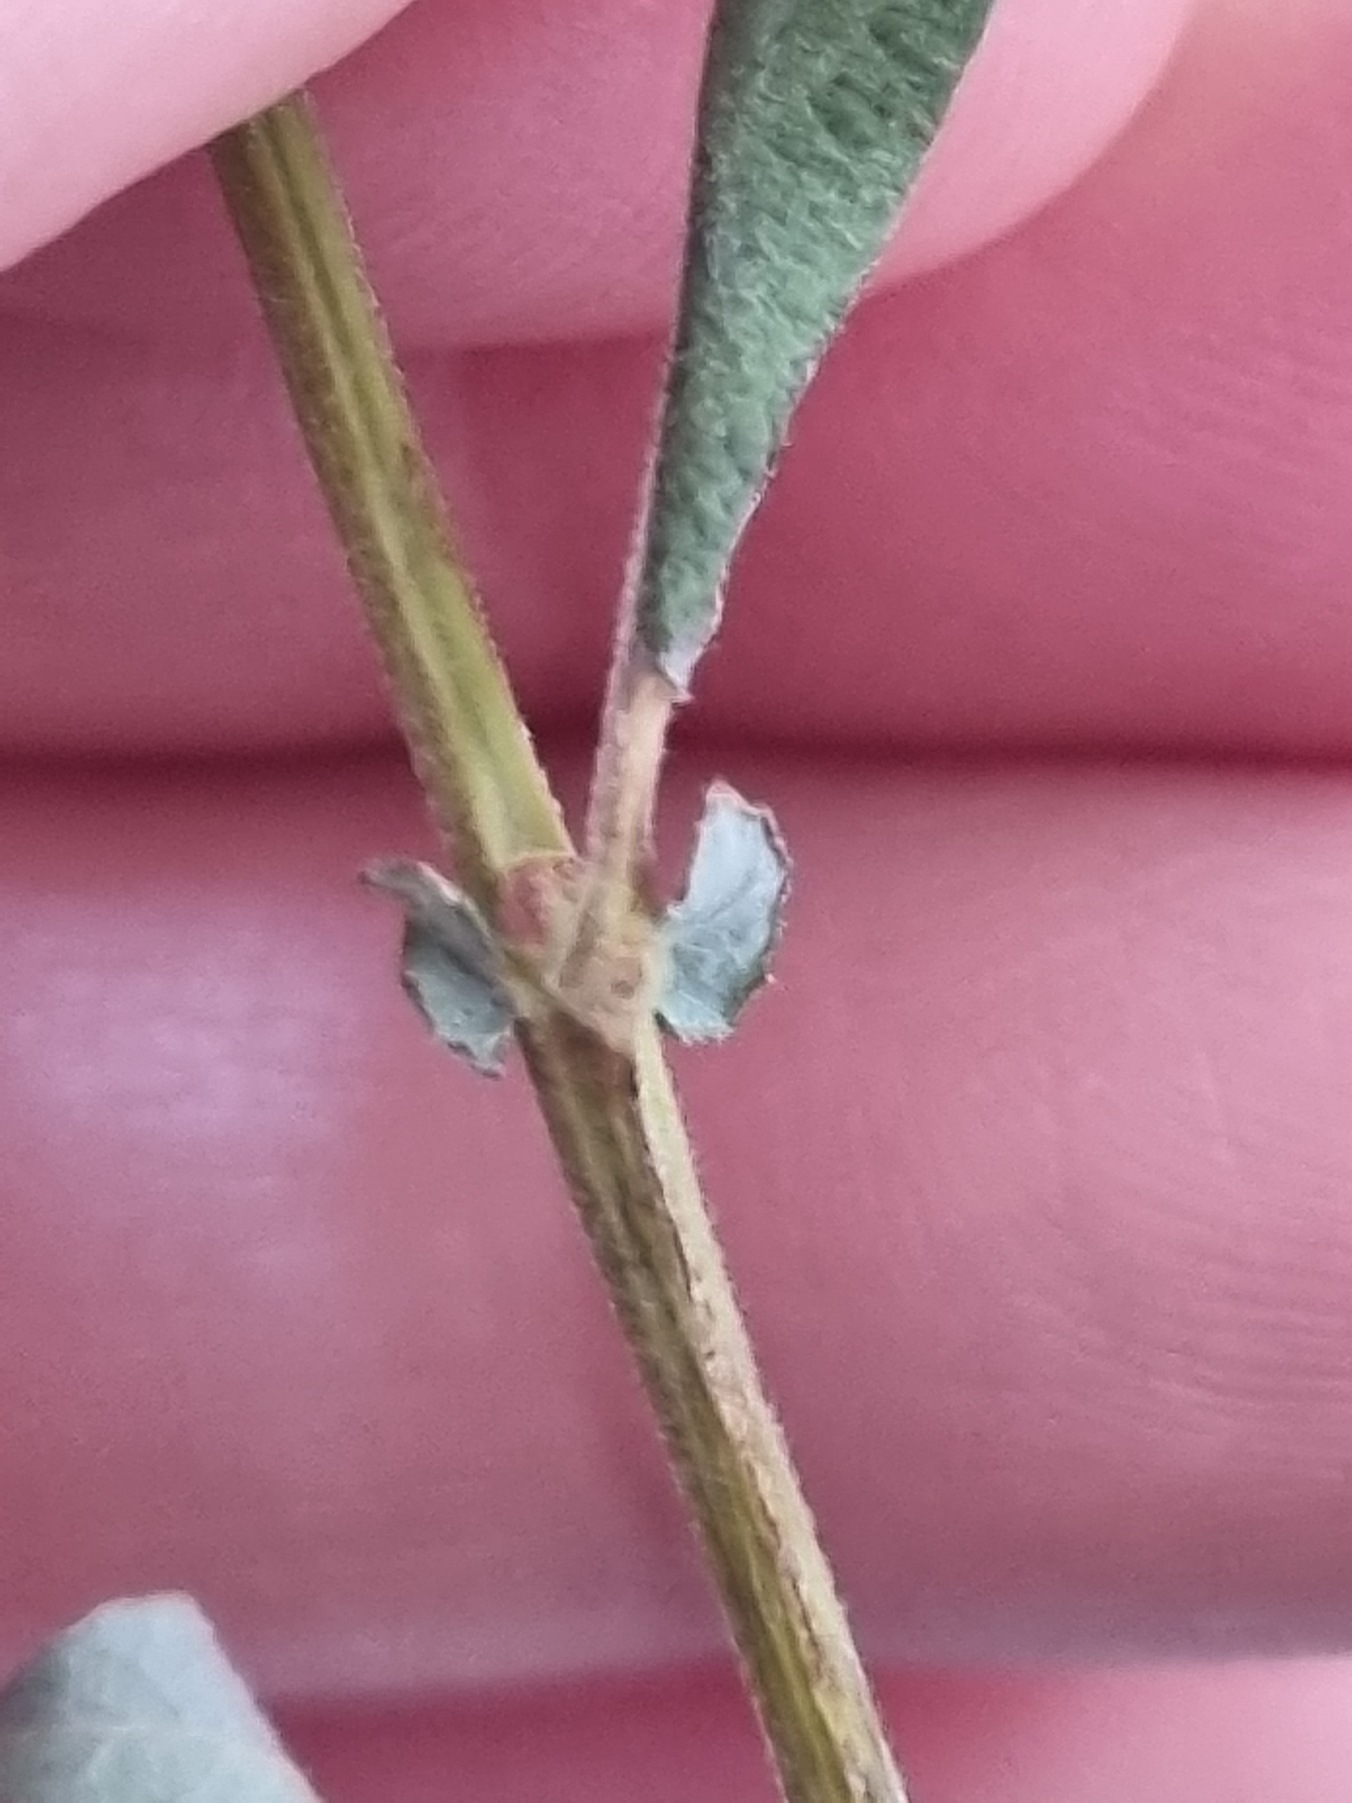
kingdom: Plantae
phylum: Tracheophyta
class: Magnoliopsida
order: Malpighiales
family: Salicaceae
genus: Salix
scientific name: Salix cinerea
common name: Grå-pil
